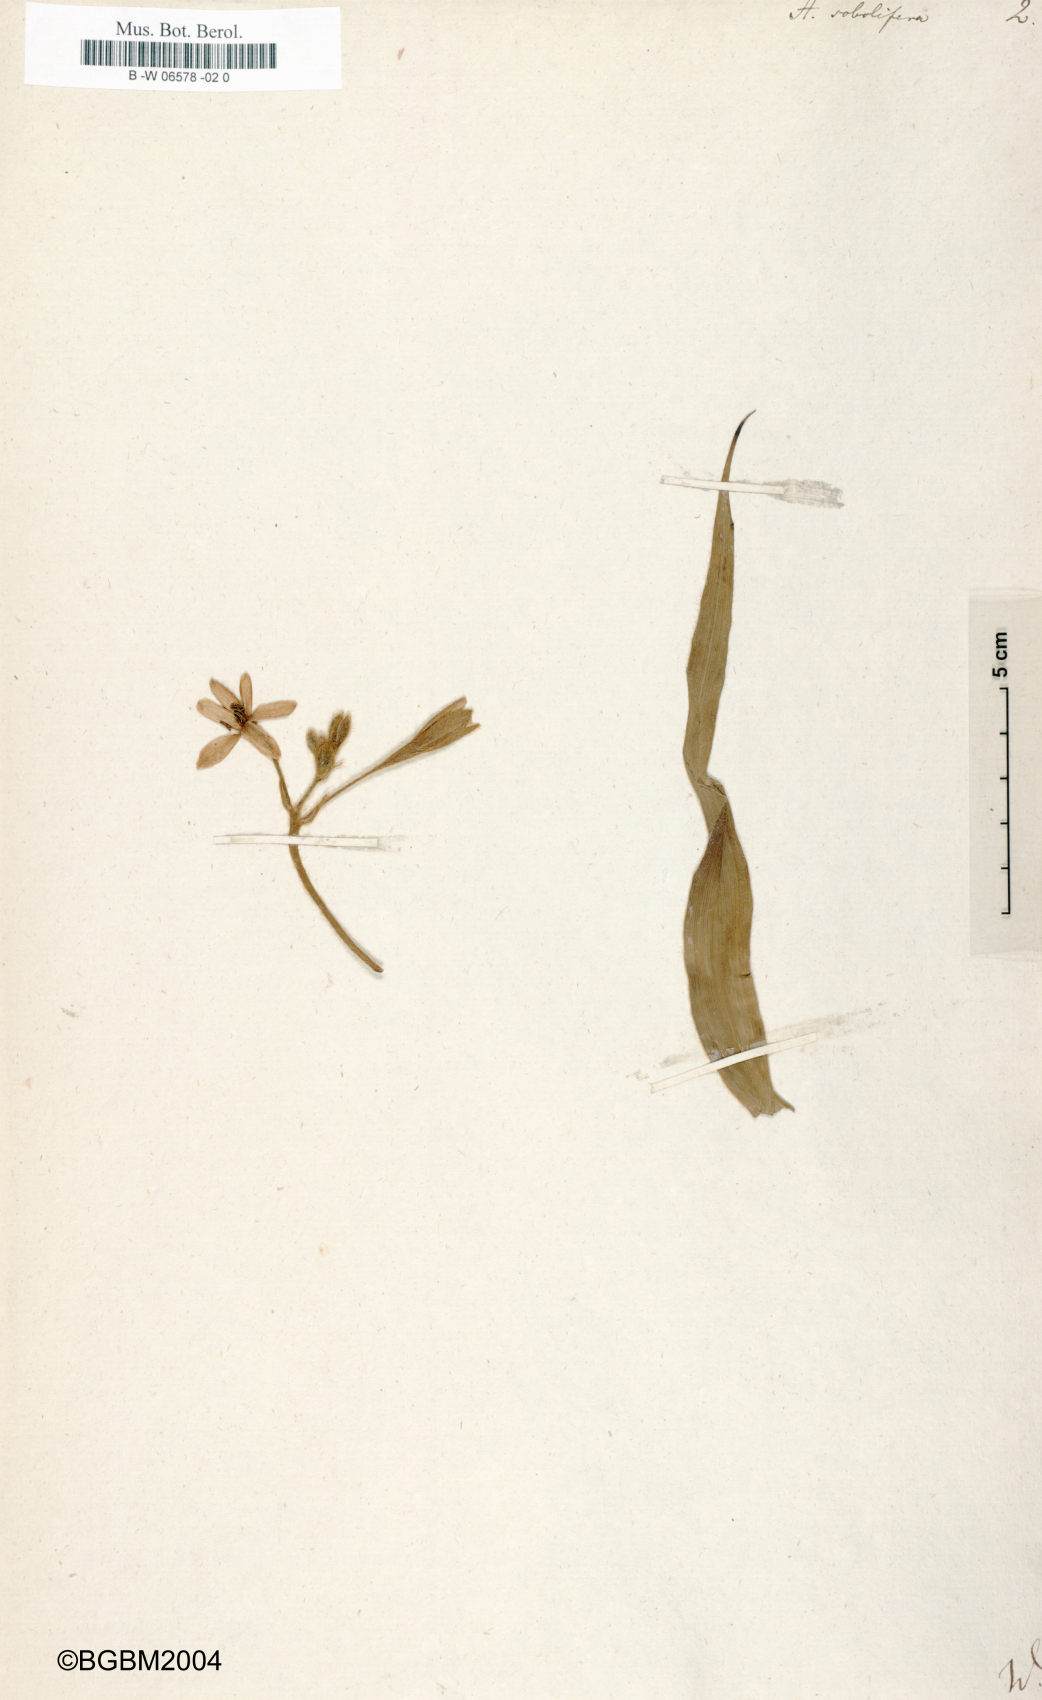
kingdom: Plantae
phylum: Tracheophyta
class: Liliopsida
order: Asparagales
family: Hypoxidaceae
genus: Hypoxis
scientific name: Hypoxis sobolifera
